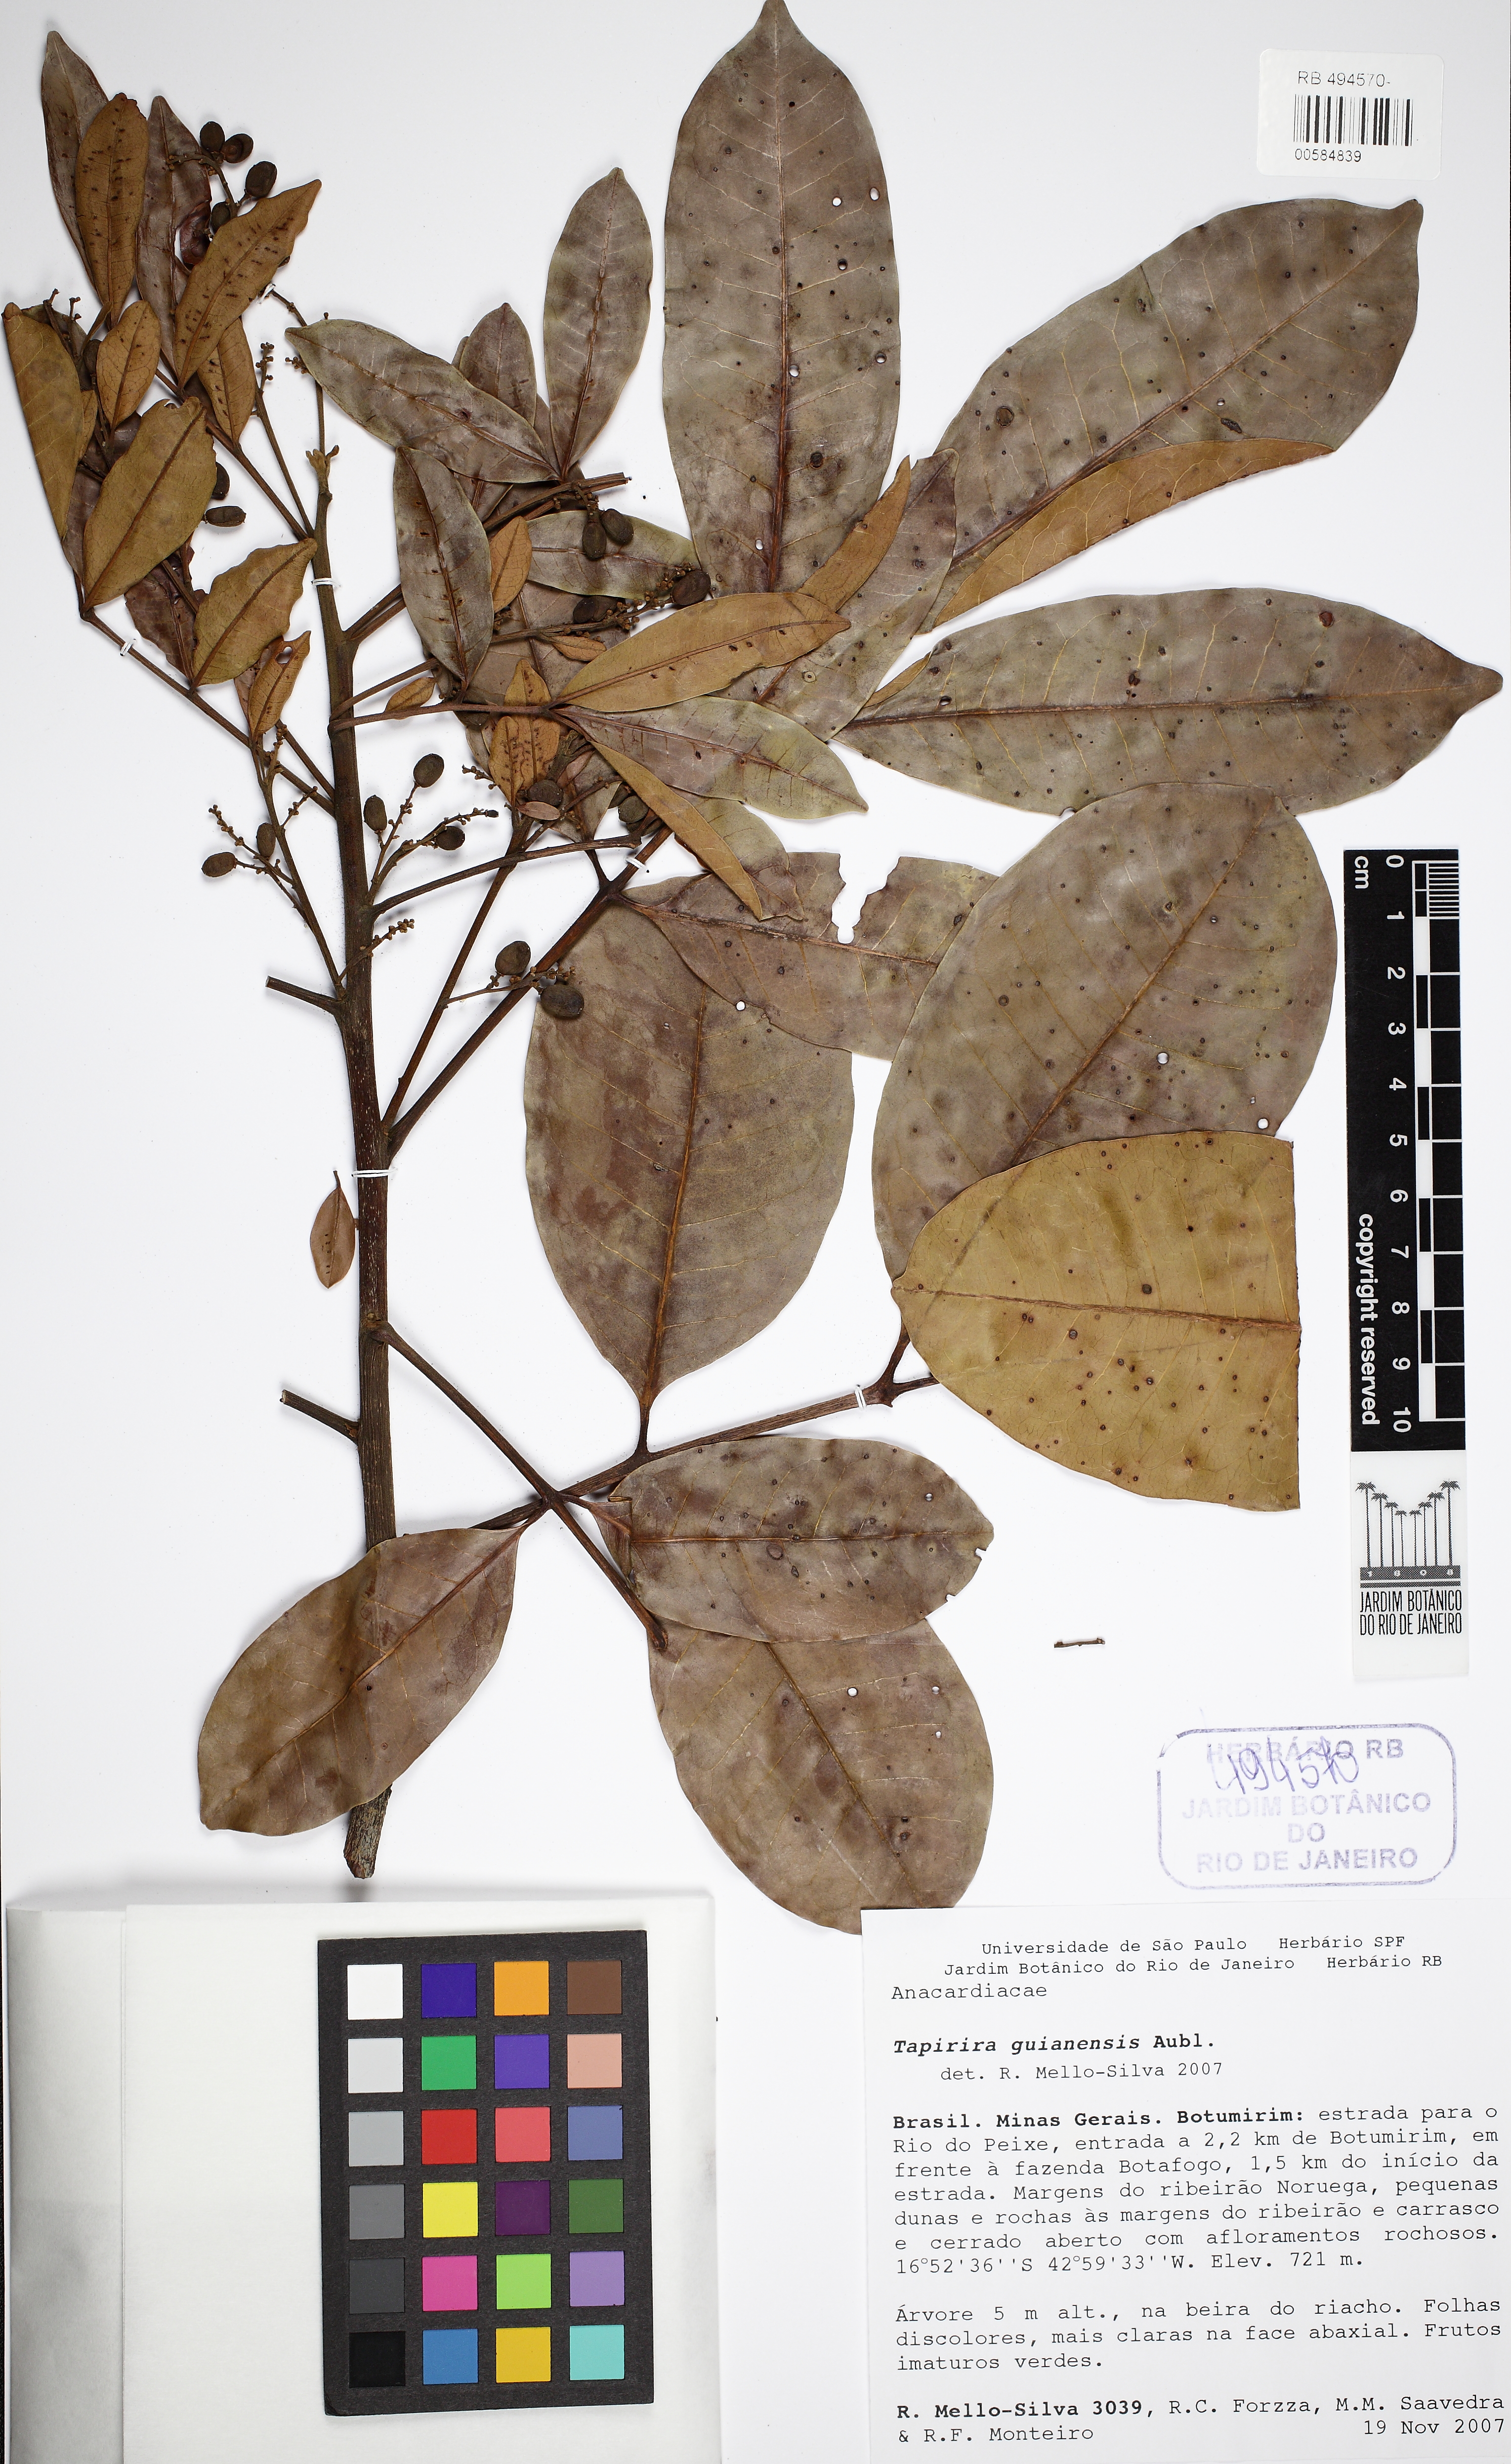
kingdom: Plantae
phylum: Tracheophyta
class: Magnoliopsida
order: Sapindales
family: Anacardiaceae
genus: Tapirira
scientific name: Tapirira guianensis
